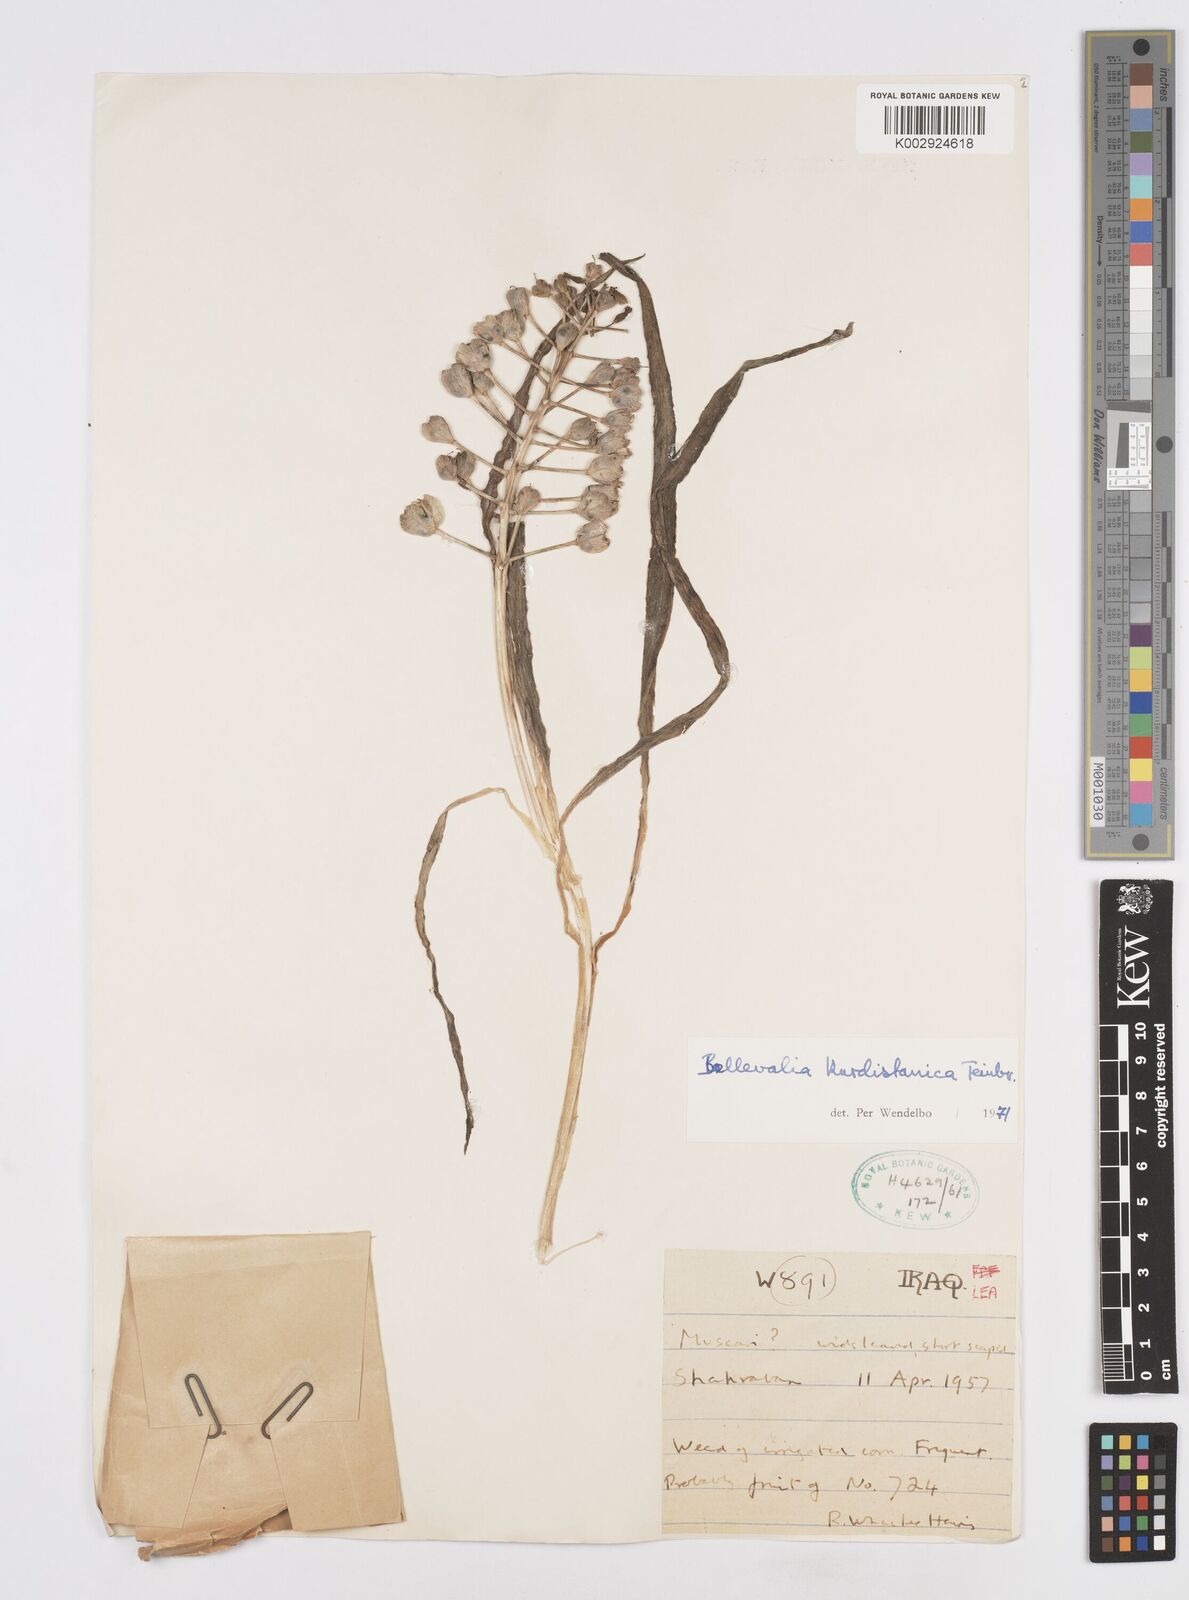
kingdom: Plantae
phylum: Tracheophyta
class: Liliopsida
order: Asparagales
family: Asparagaceae
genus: Bellevalia
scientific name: Bellevalia kurdistanica
